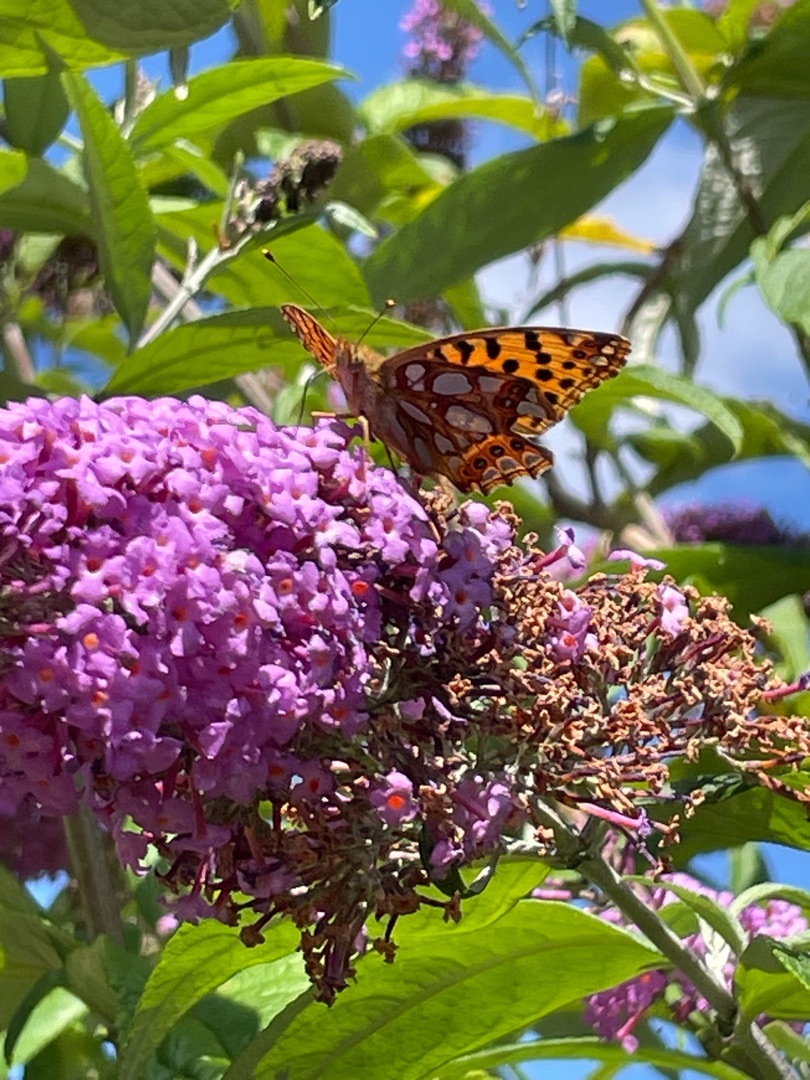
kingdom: Animalia
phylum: Arthropoda
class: Insecta
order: Lepidoptera
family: Nymphalidae
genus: Issoria
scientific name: Issoria lathonia
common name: Storplettet perlemorsommerfugl
